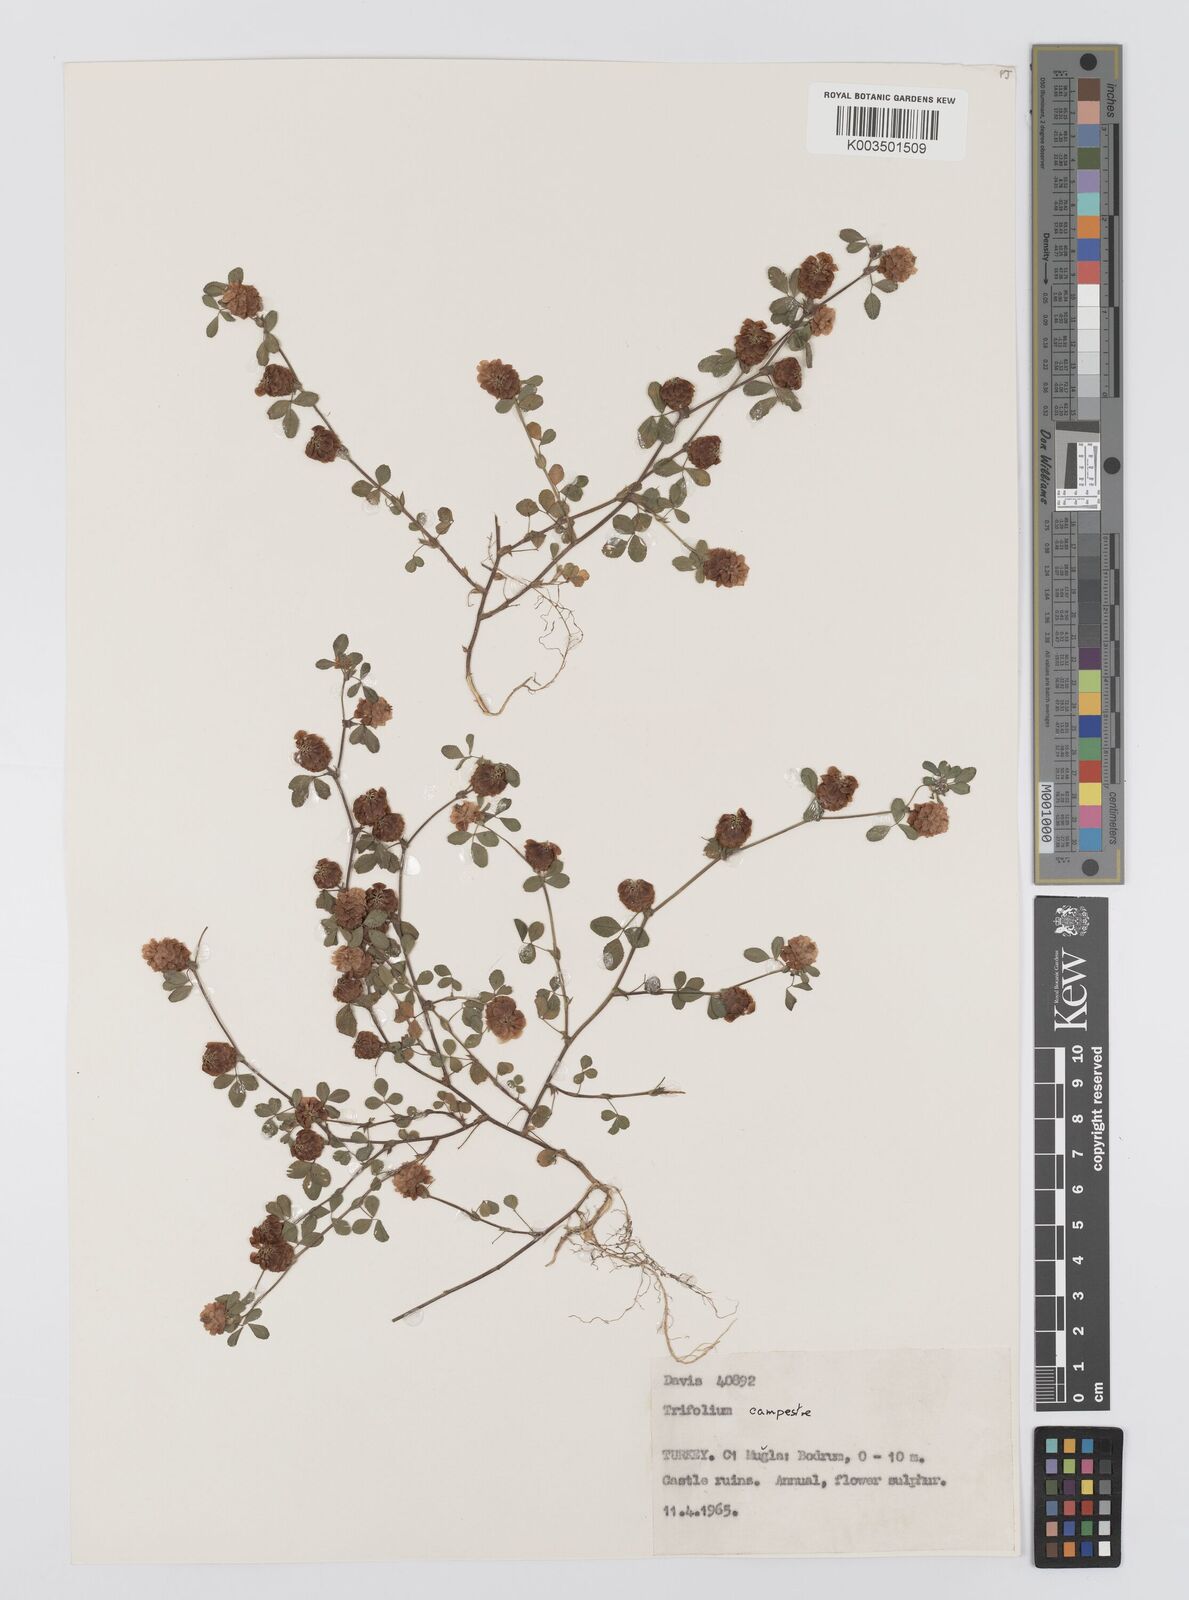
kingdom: Plantae
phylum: Tracheophyta
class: Magnoliopsida
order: Fabales
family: Fabaceae
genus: Trifolium
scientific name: Trifolium campestre
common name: Field clover
